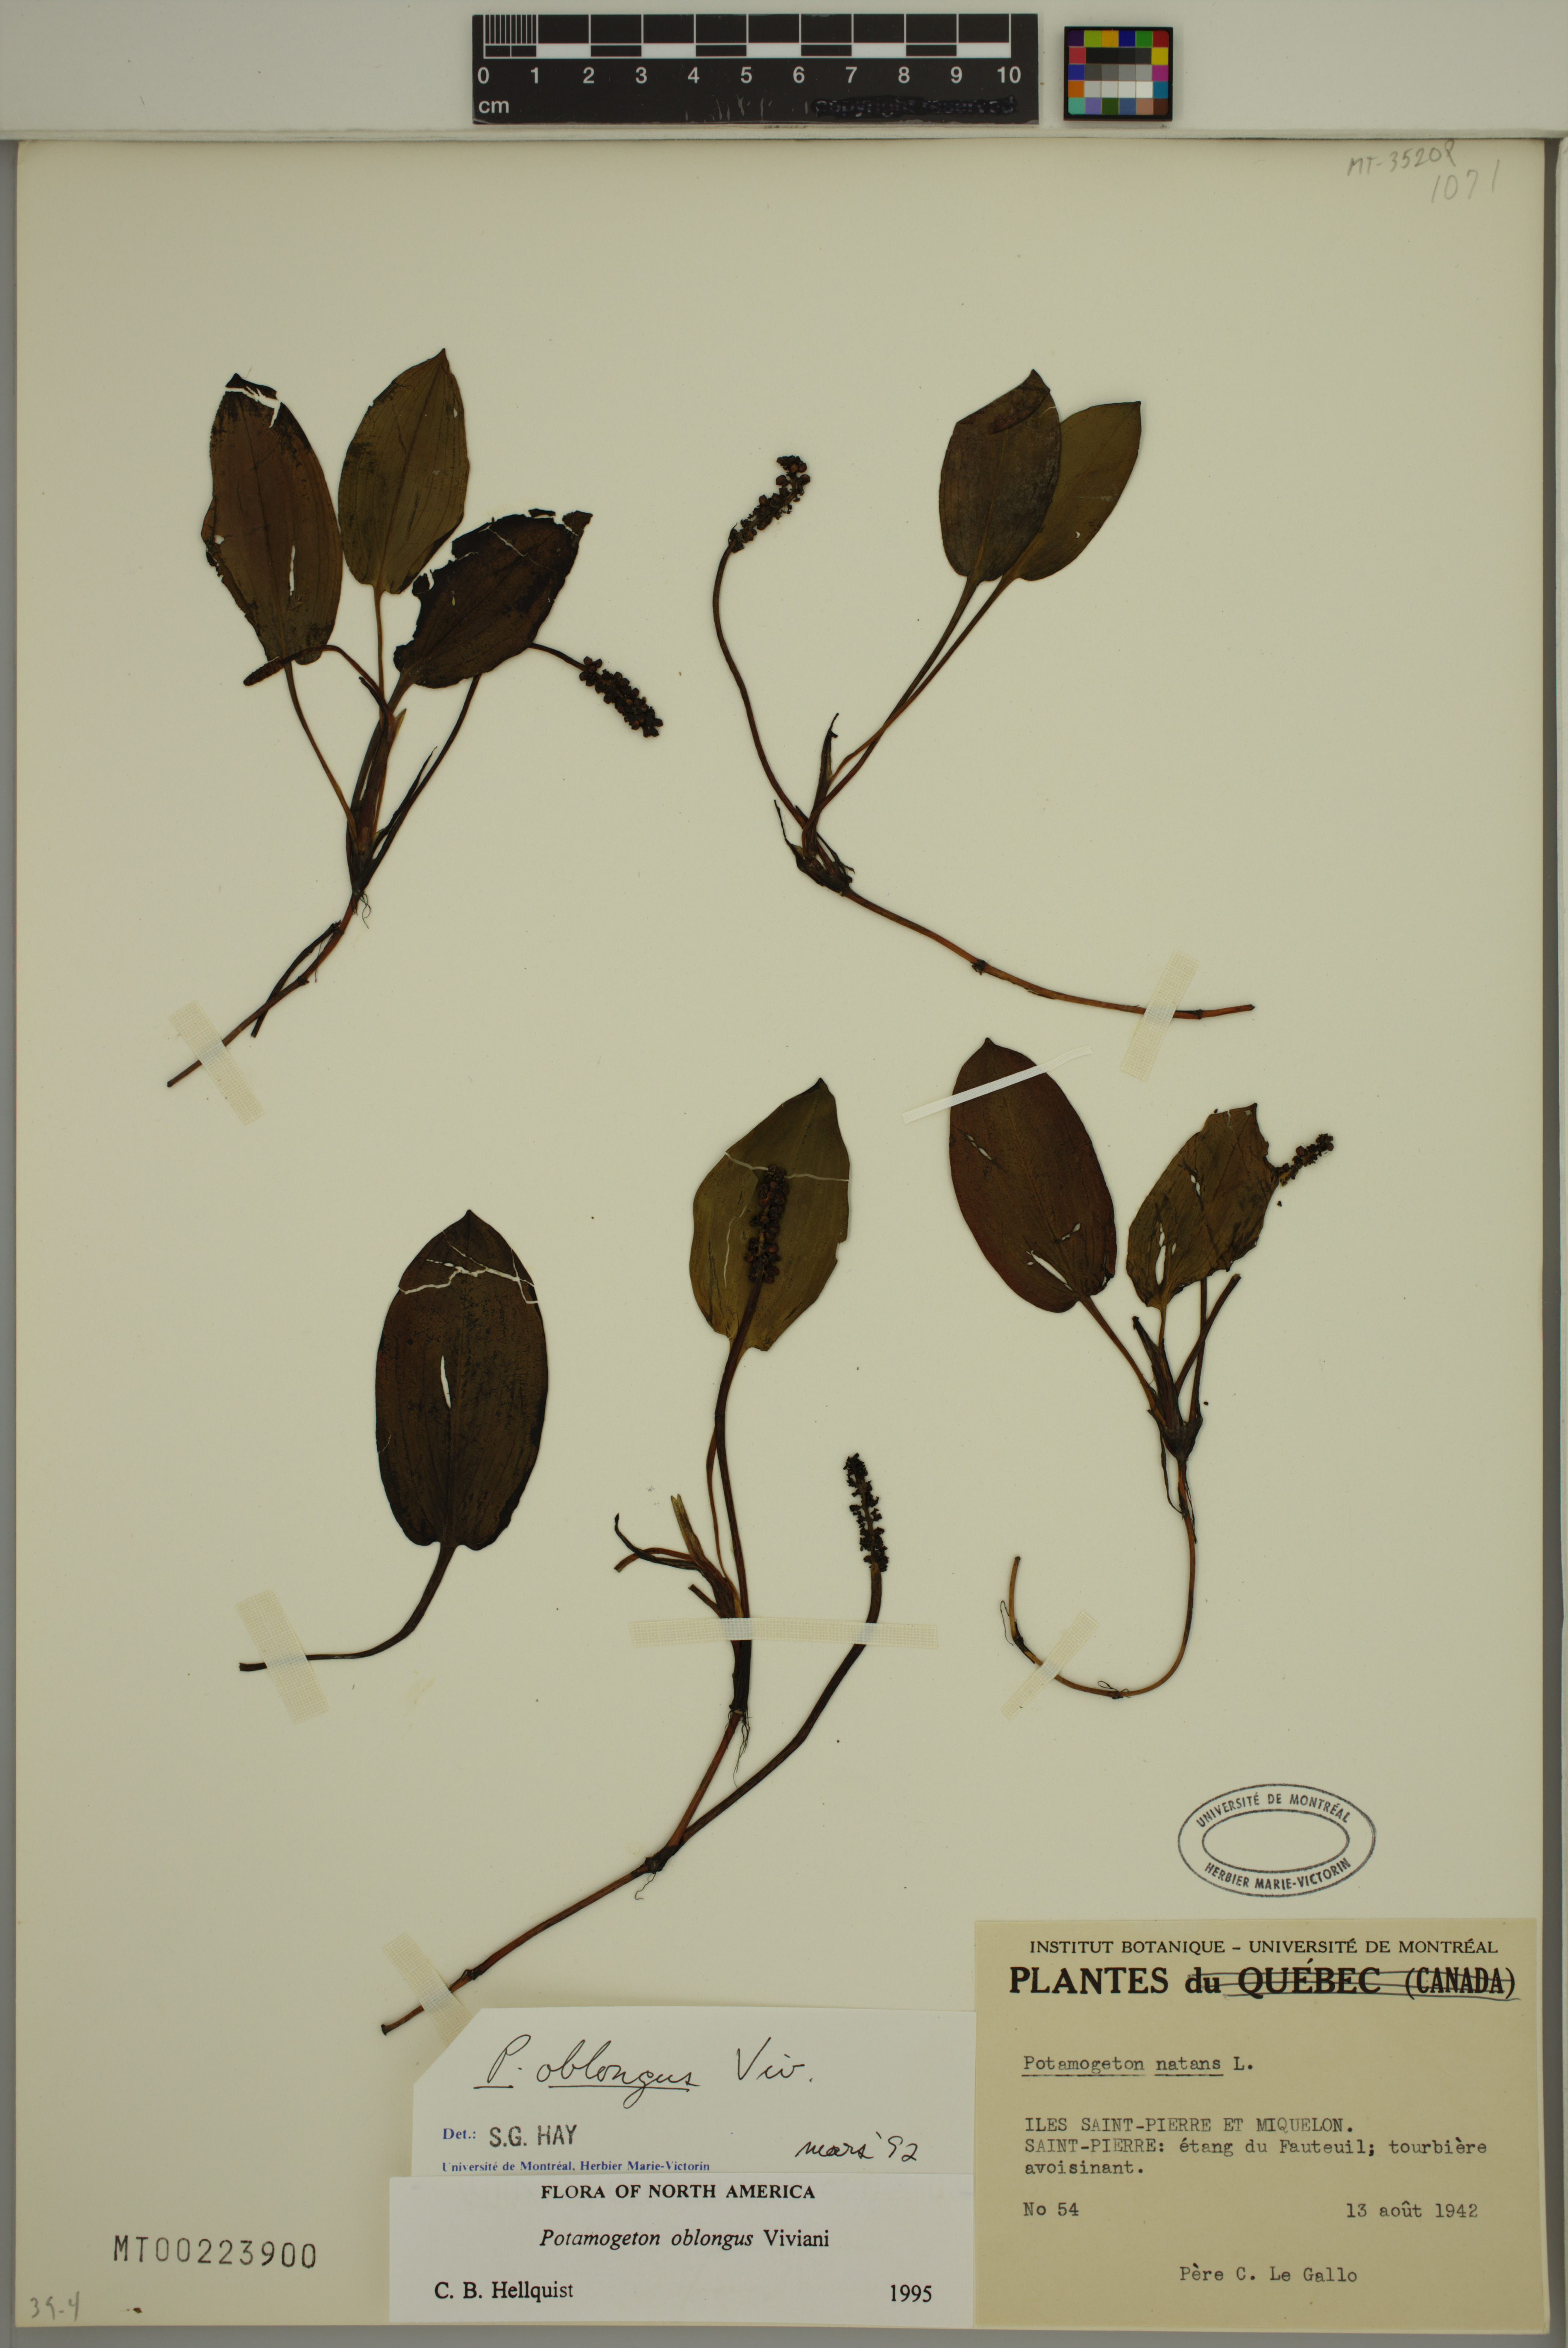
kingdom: Plantae
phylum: Tracheophyta
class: Liliopsida
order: Alismatales
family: Potamogetonaceae
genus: Potamogeton
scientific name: Potamogeton polygonifolius
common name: Bog pondweed
